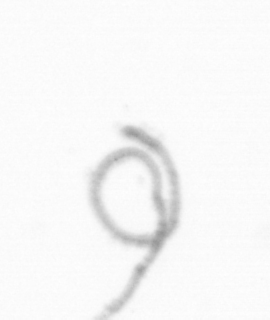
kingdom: Chromista
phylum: Ochrophyta
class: Bacillariophyceae
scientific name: Bacillariophyceae
